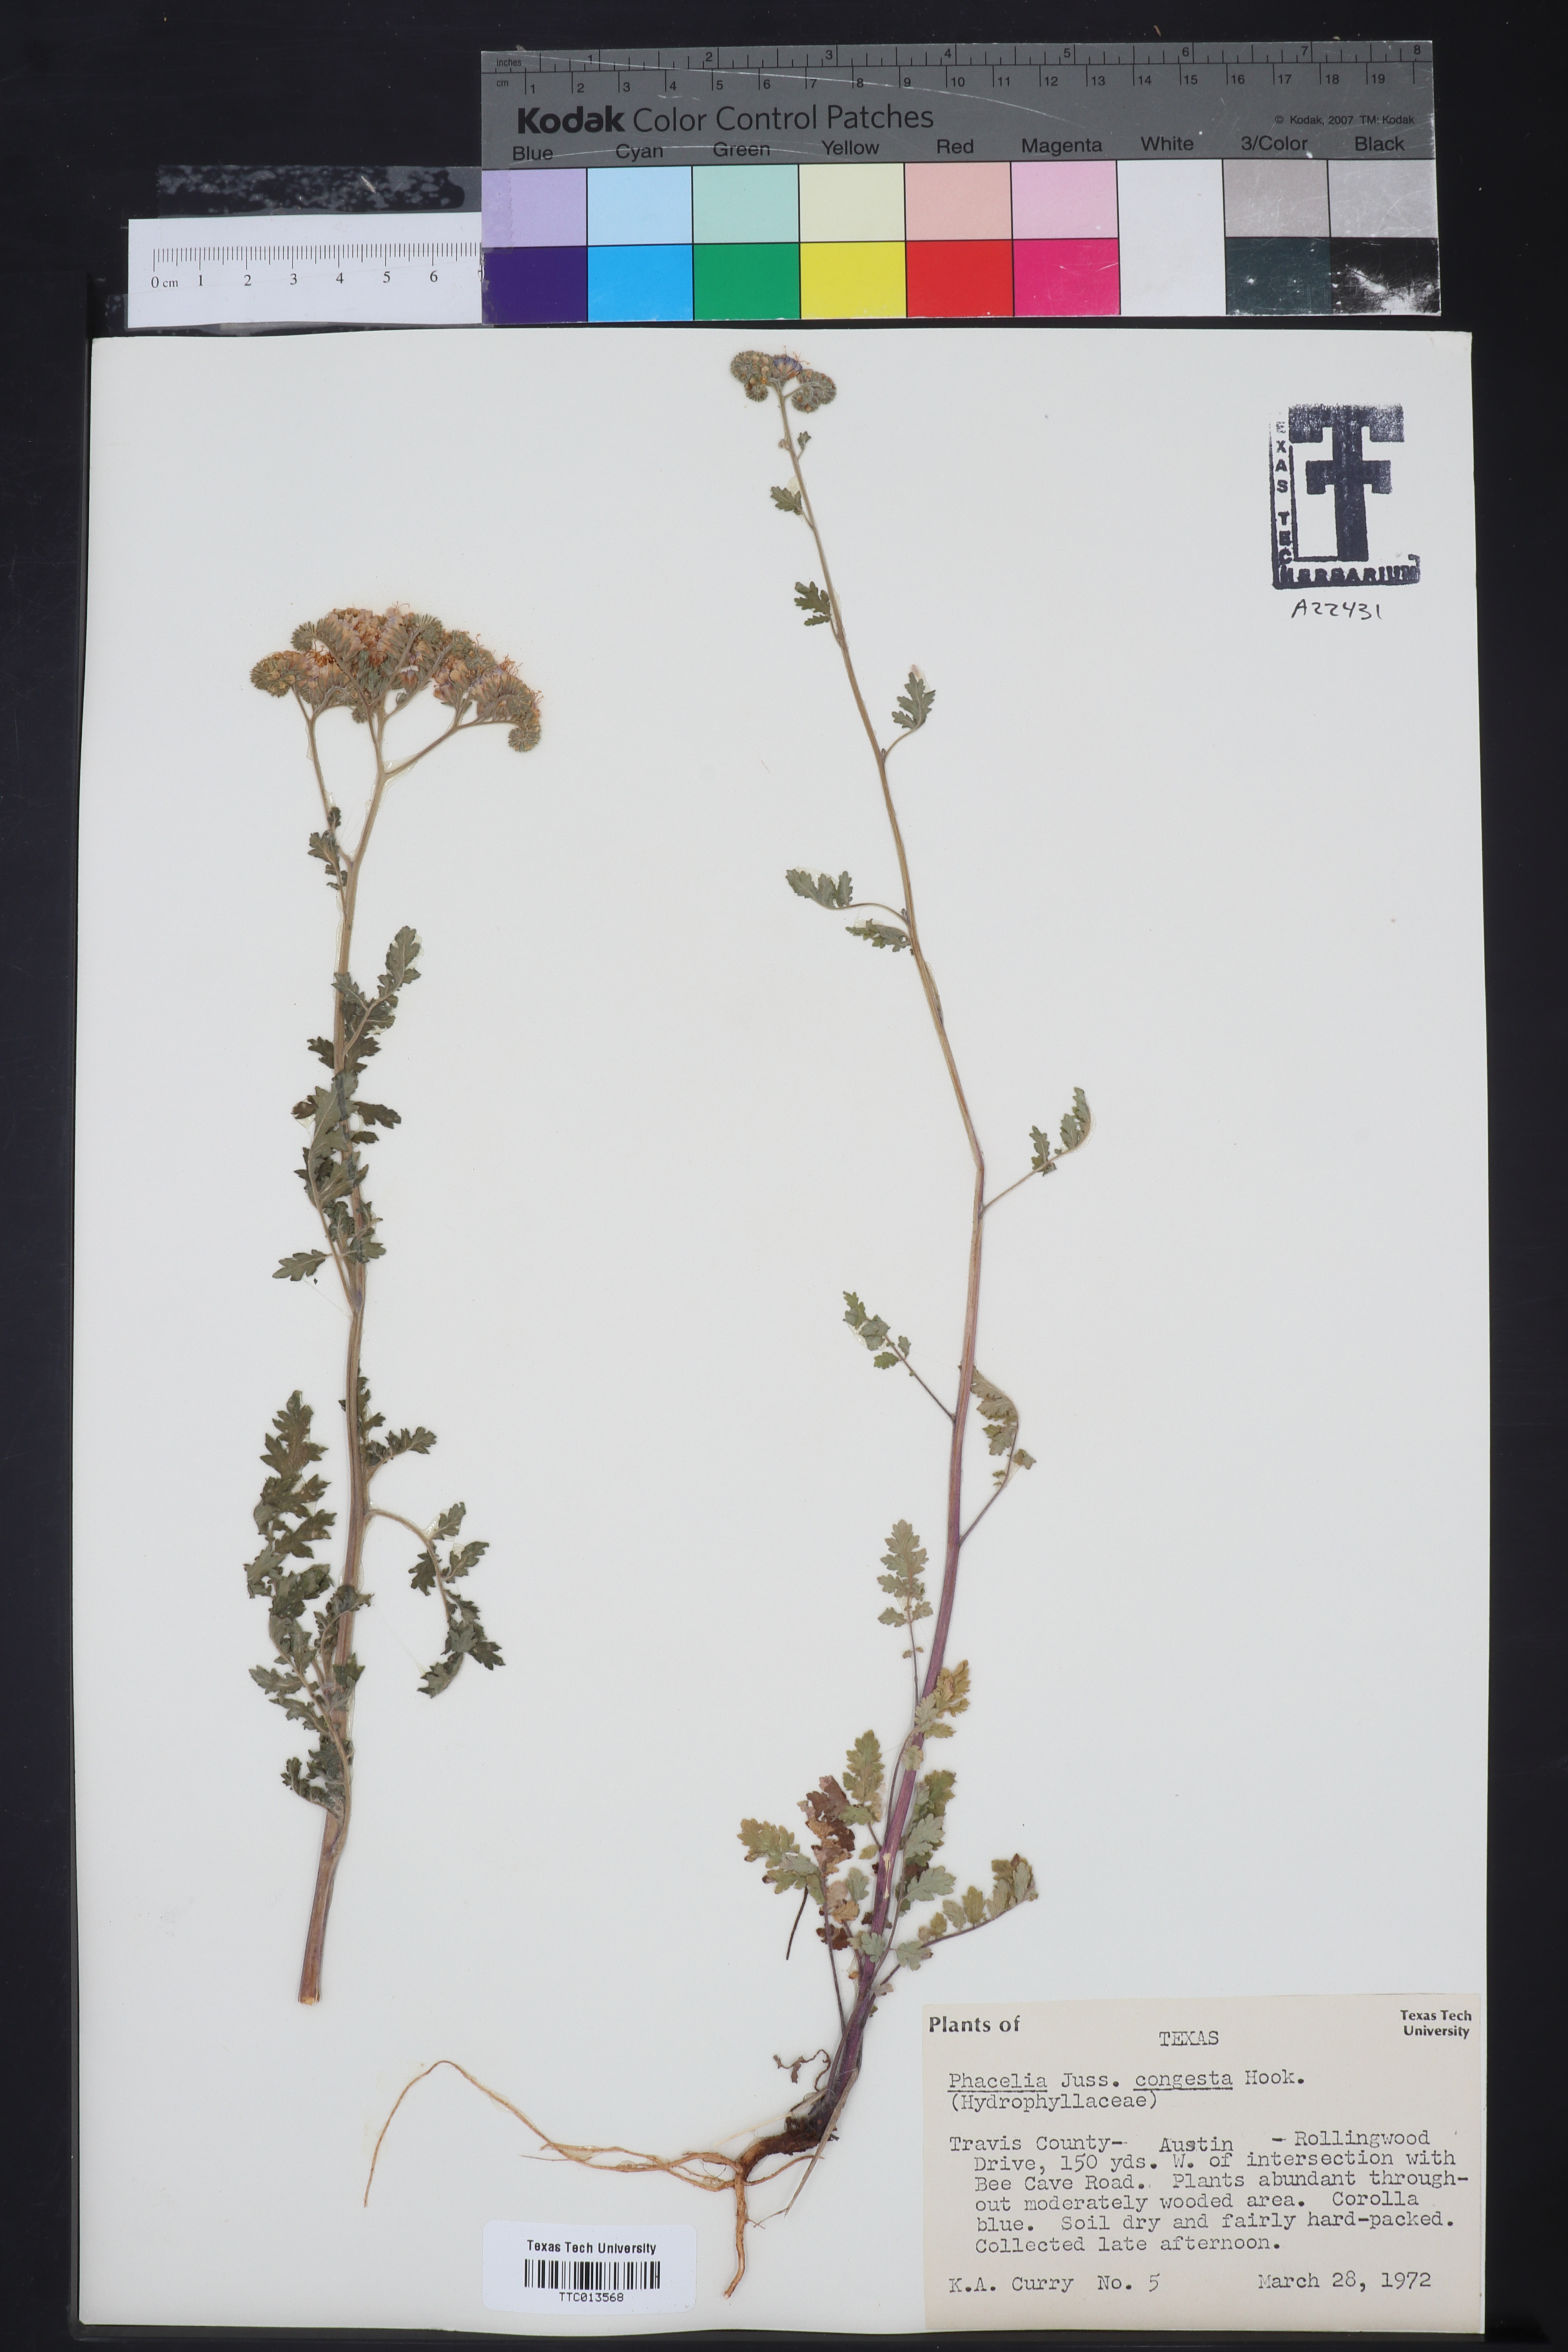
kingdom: Plantae
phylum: Tracheophyta
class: Magnoliopsida
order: Boraginales
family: Hydrophyllaceae
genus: Phacelia
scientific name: Phacelia congesta
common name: Blue curls
